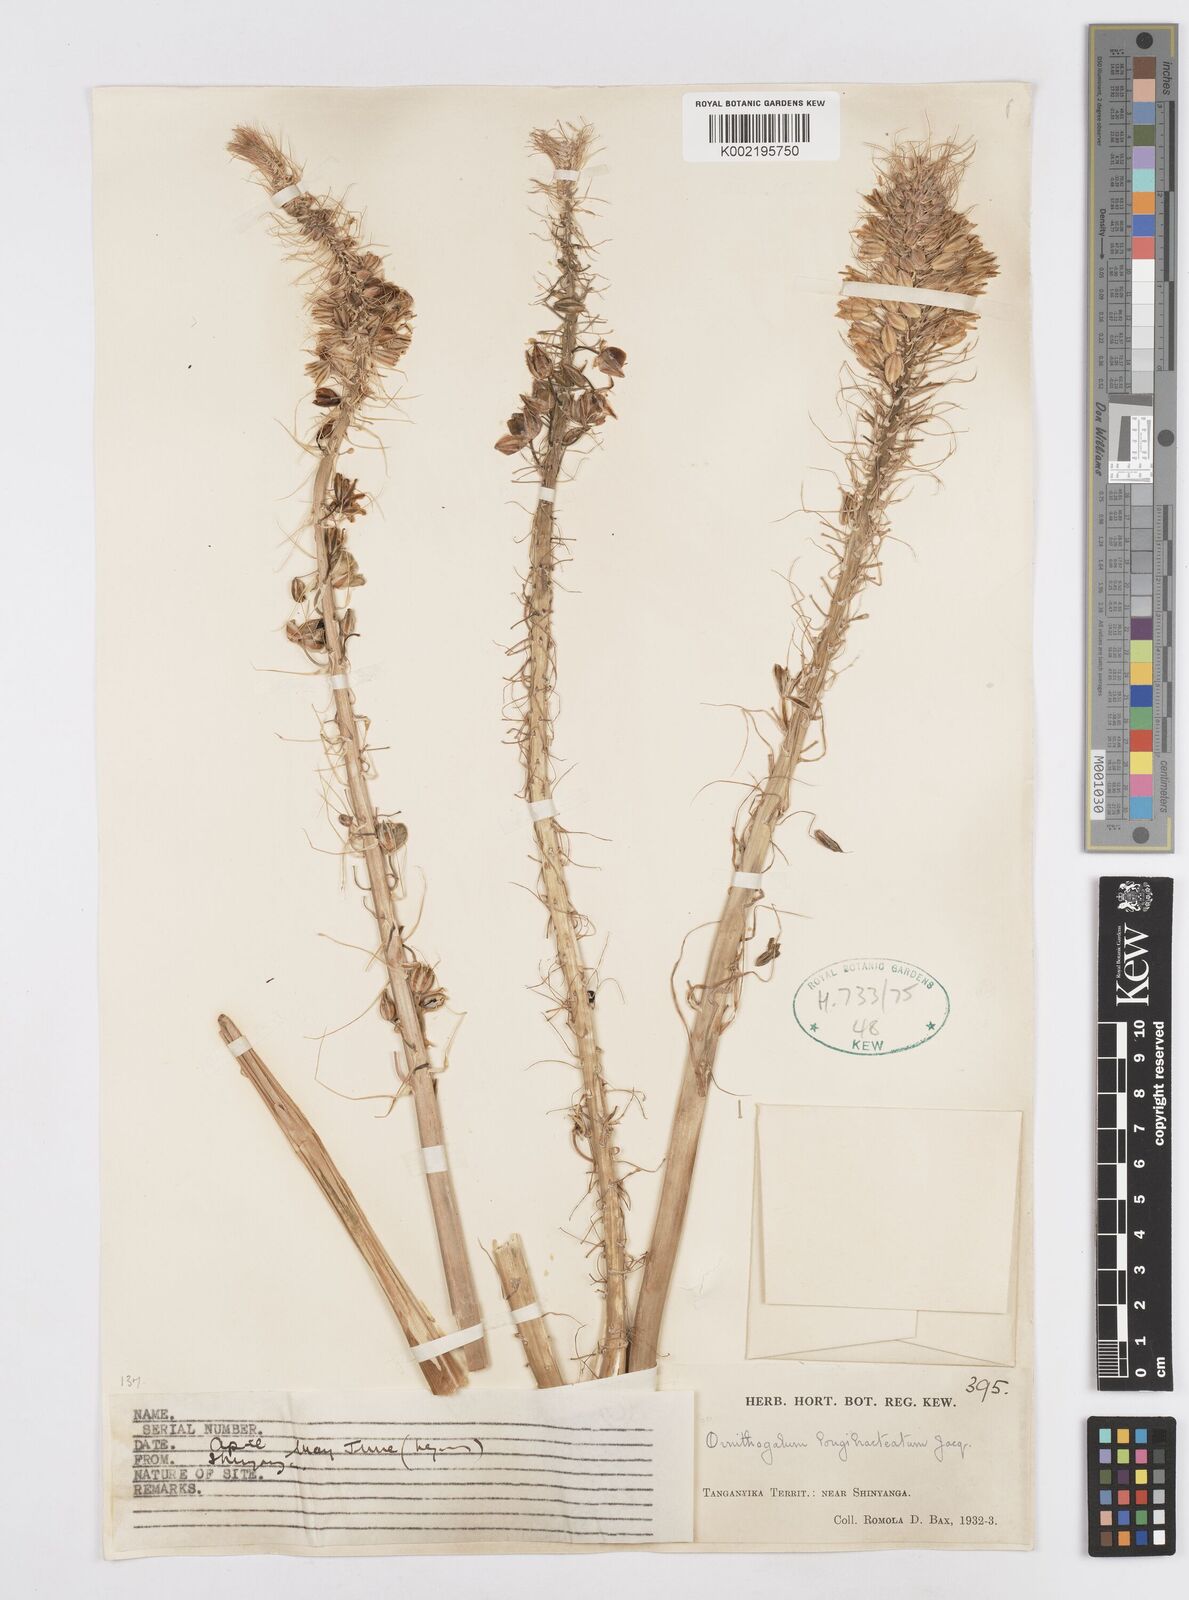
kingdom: Plantae
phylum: Tracheophyta
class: Liliopsida
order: Asparagales
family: Asparagaceae
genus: Albuca
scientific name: Albuca virens
